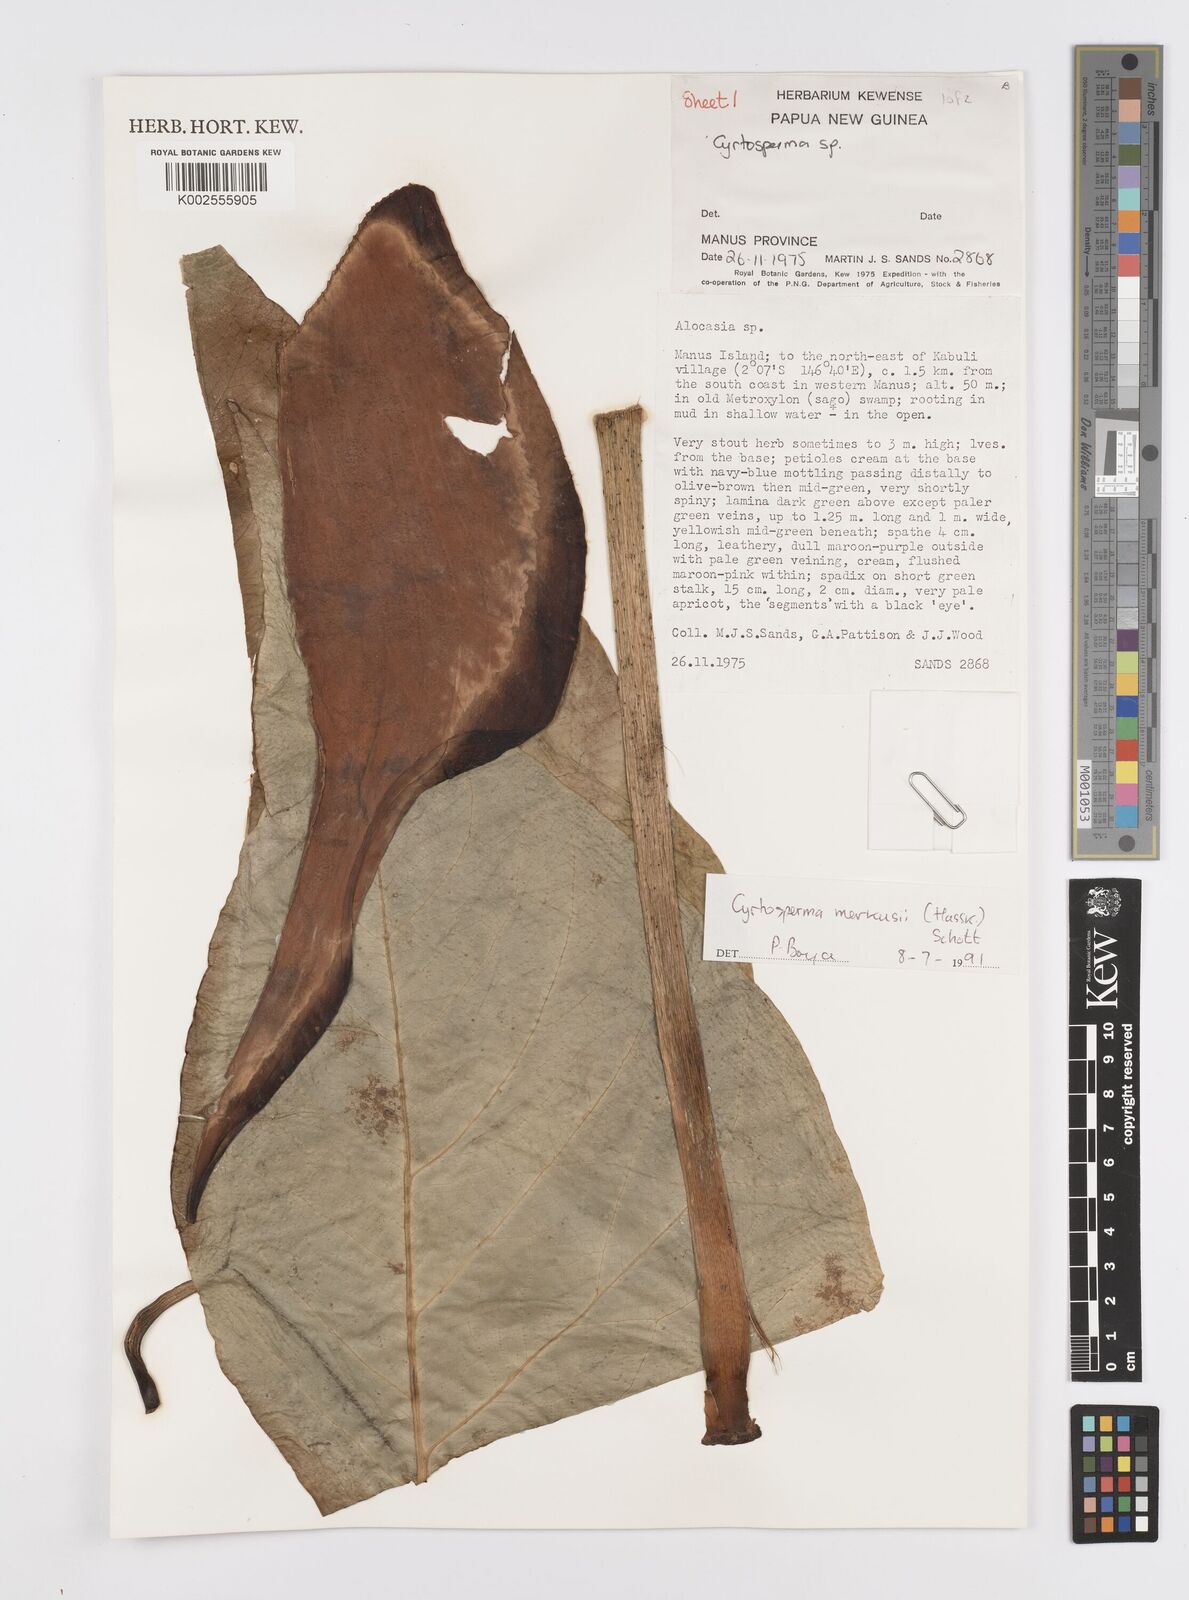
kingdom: Plantae
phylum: Tracheophyta
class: Liliopsida
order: Alismatales
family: Araceae
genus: Cyrtosperma
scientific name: Cyrtosperma merkusii
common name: Giant swamp-taro
